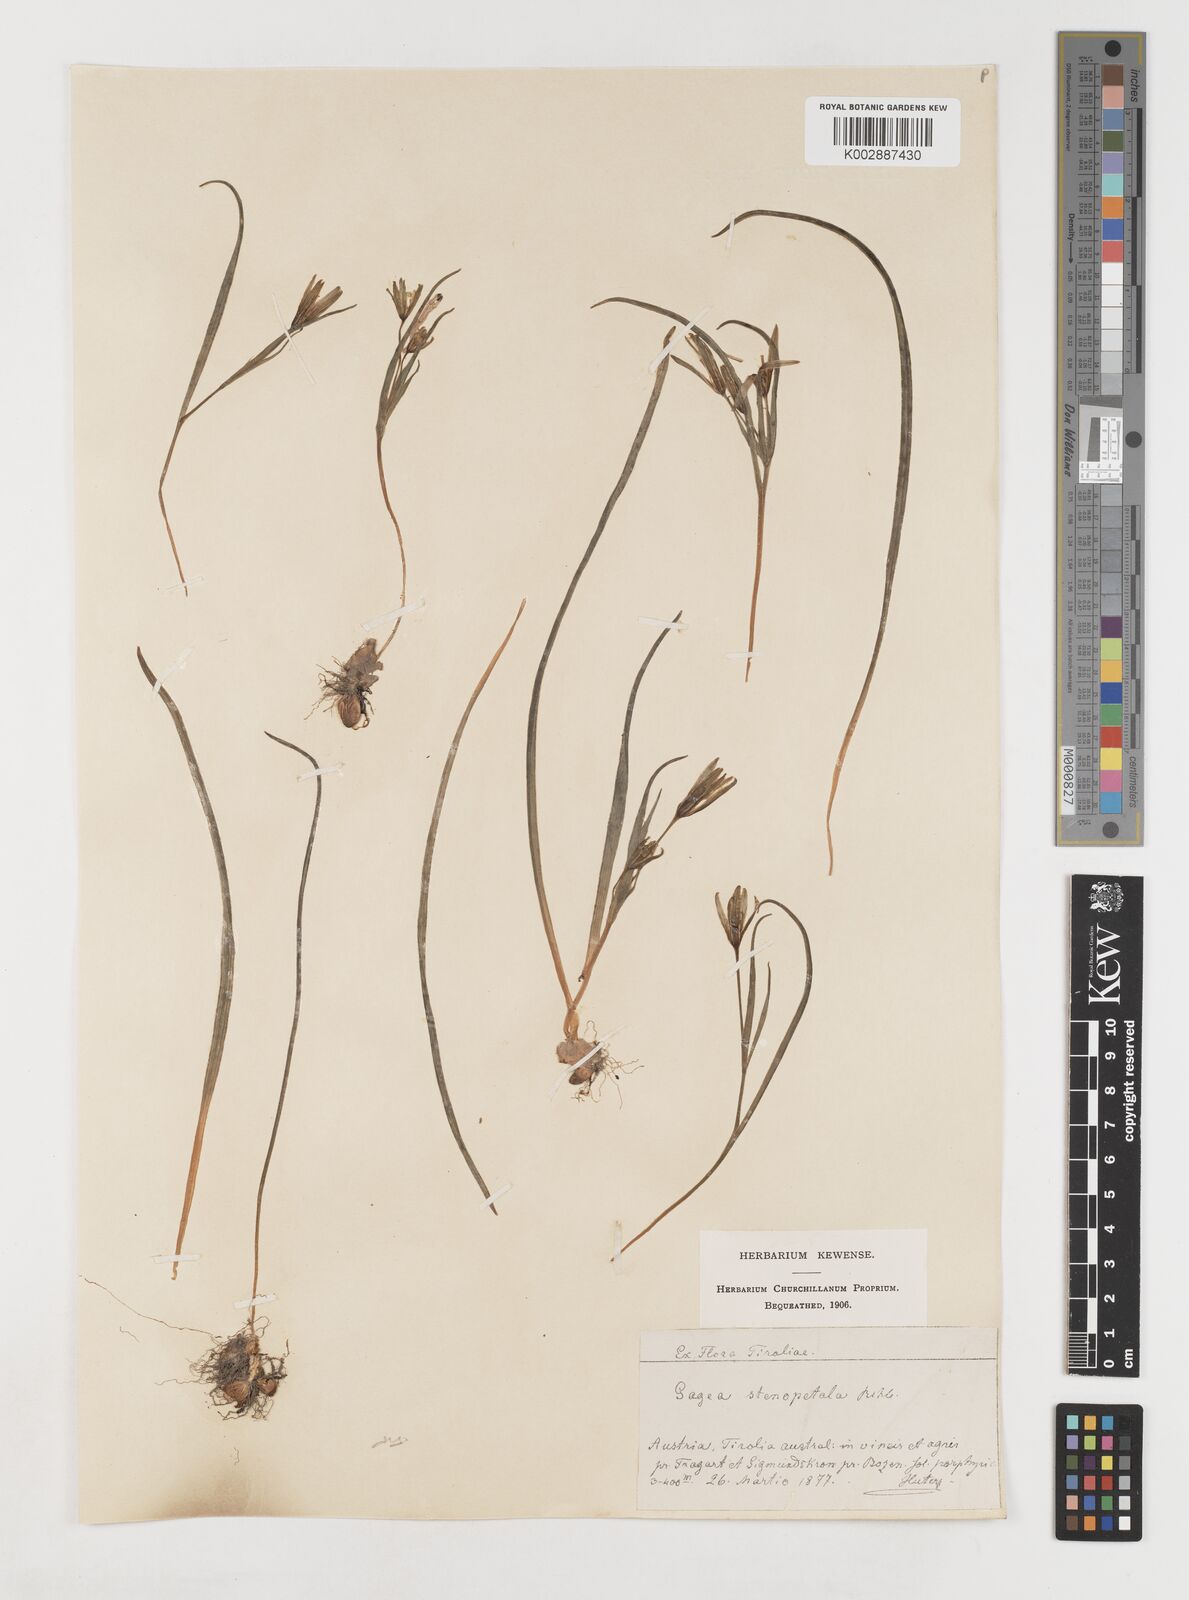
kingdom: Plantae
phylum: Tracheophyta
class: Liliopsida
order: Liliales
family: Liliaceae
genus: Gagea
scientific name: Gagea pratensis
